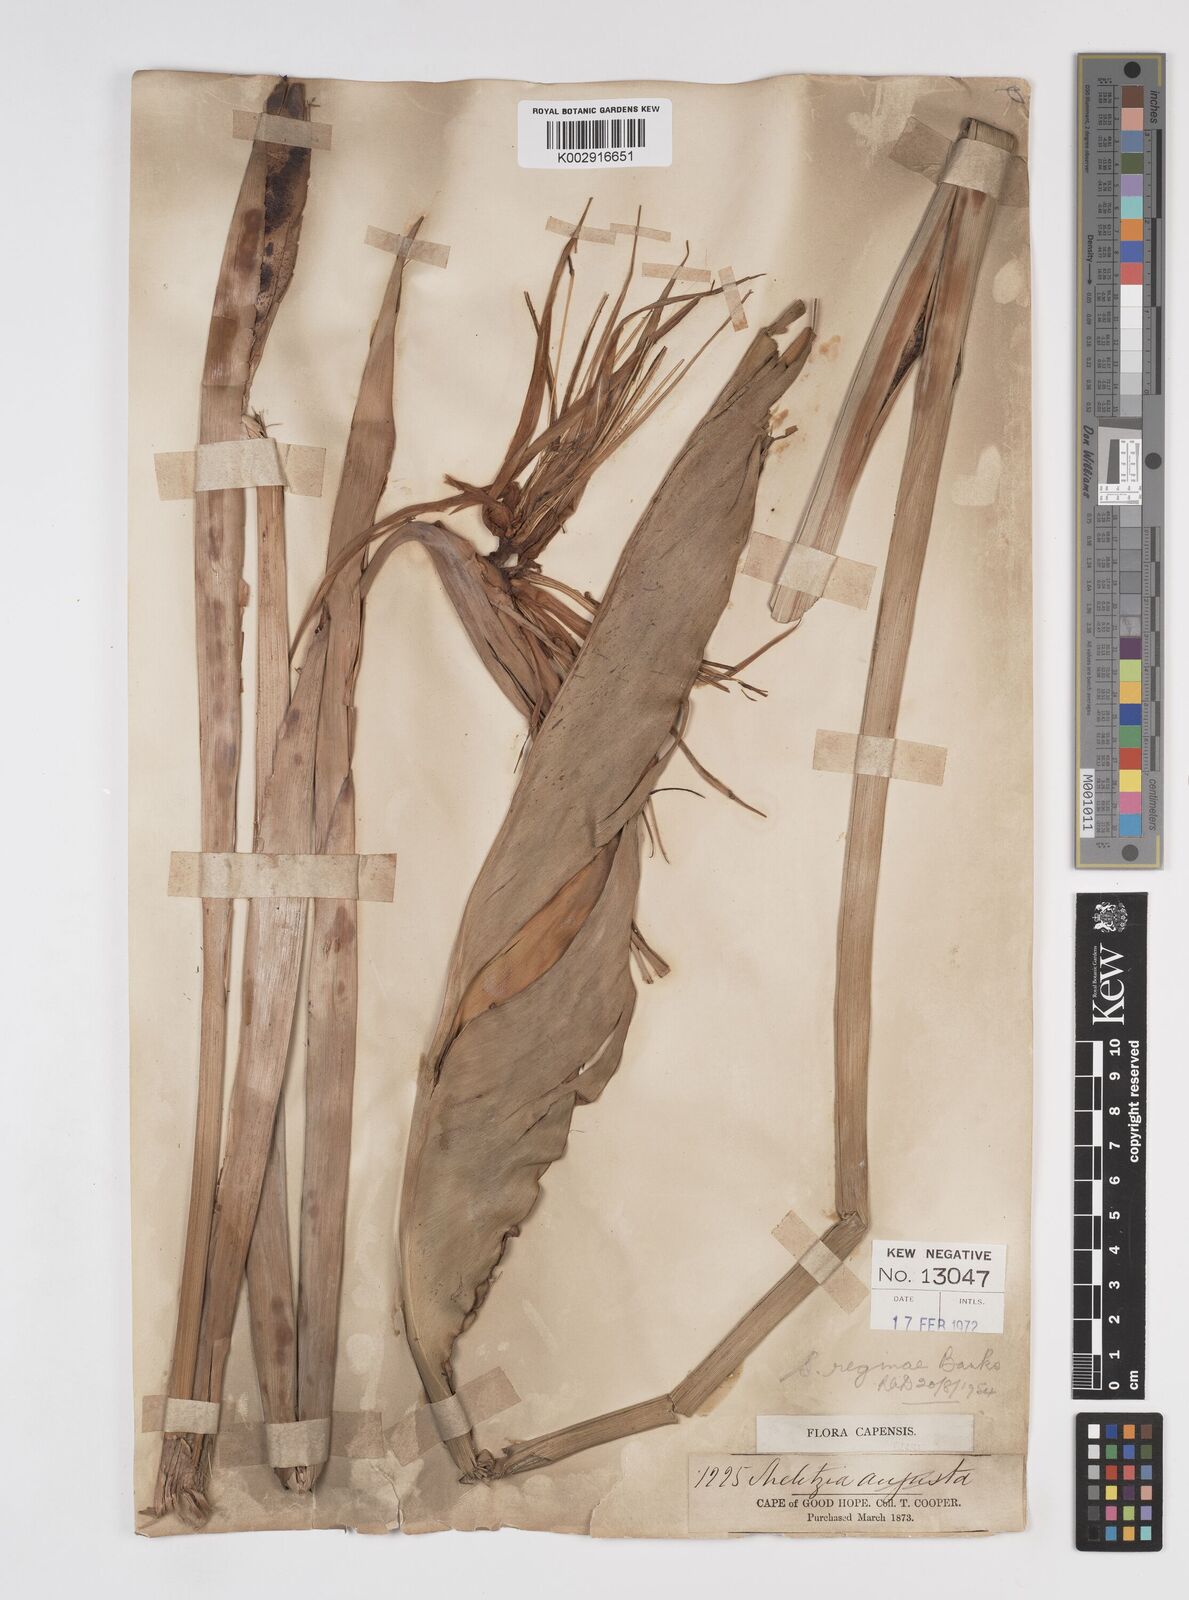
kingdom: Plantae
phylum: Tracheophyta
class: Liliopsida
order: Zingiberales
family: Strelitziaceae
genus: Strelitzia
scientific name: Strelitzia reginae
